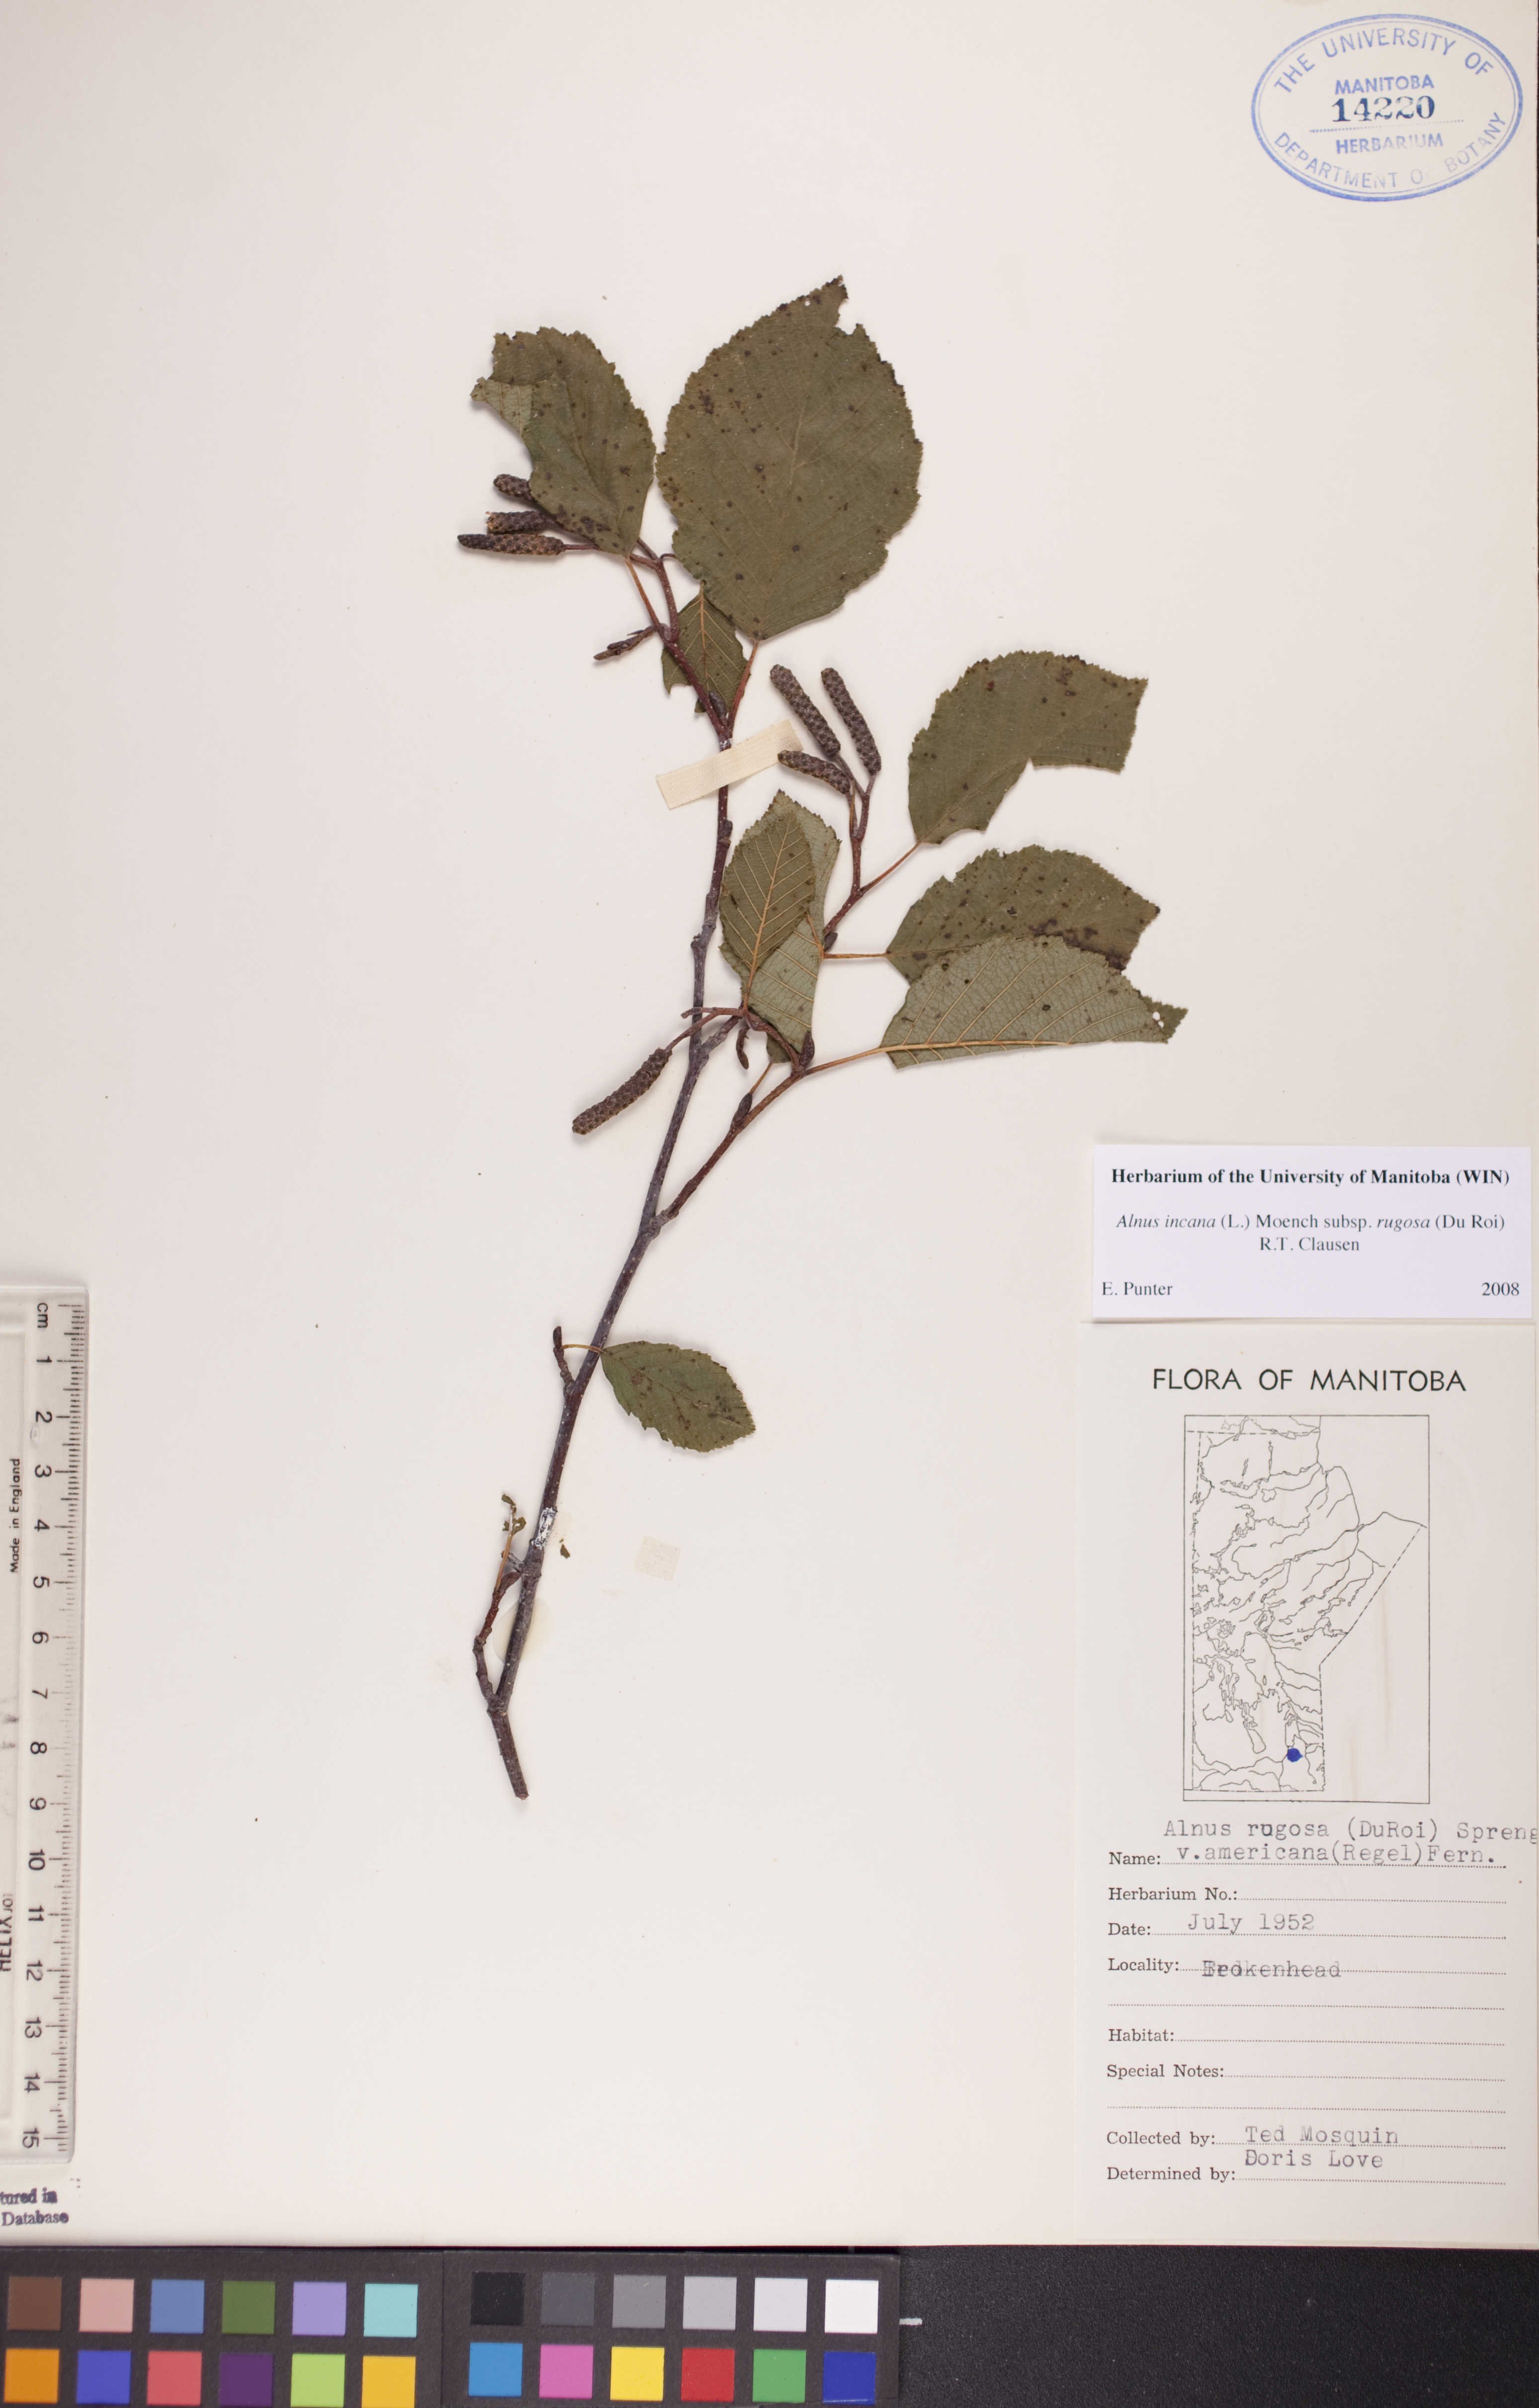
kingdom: Plantae
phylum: Tracheophyta
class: Magnoliopsida
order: Fagales
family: Betulaceae
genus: Alnus
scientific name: Alnus incana
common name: Grey alder
